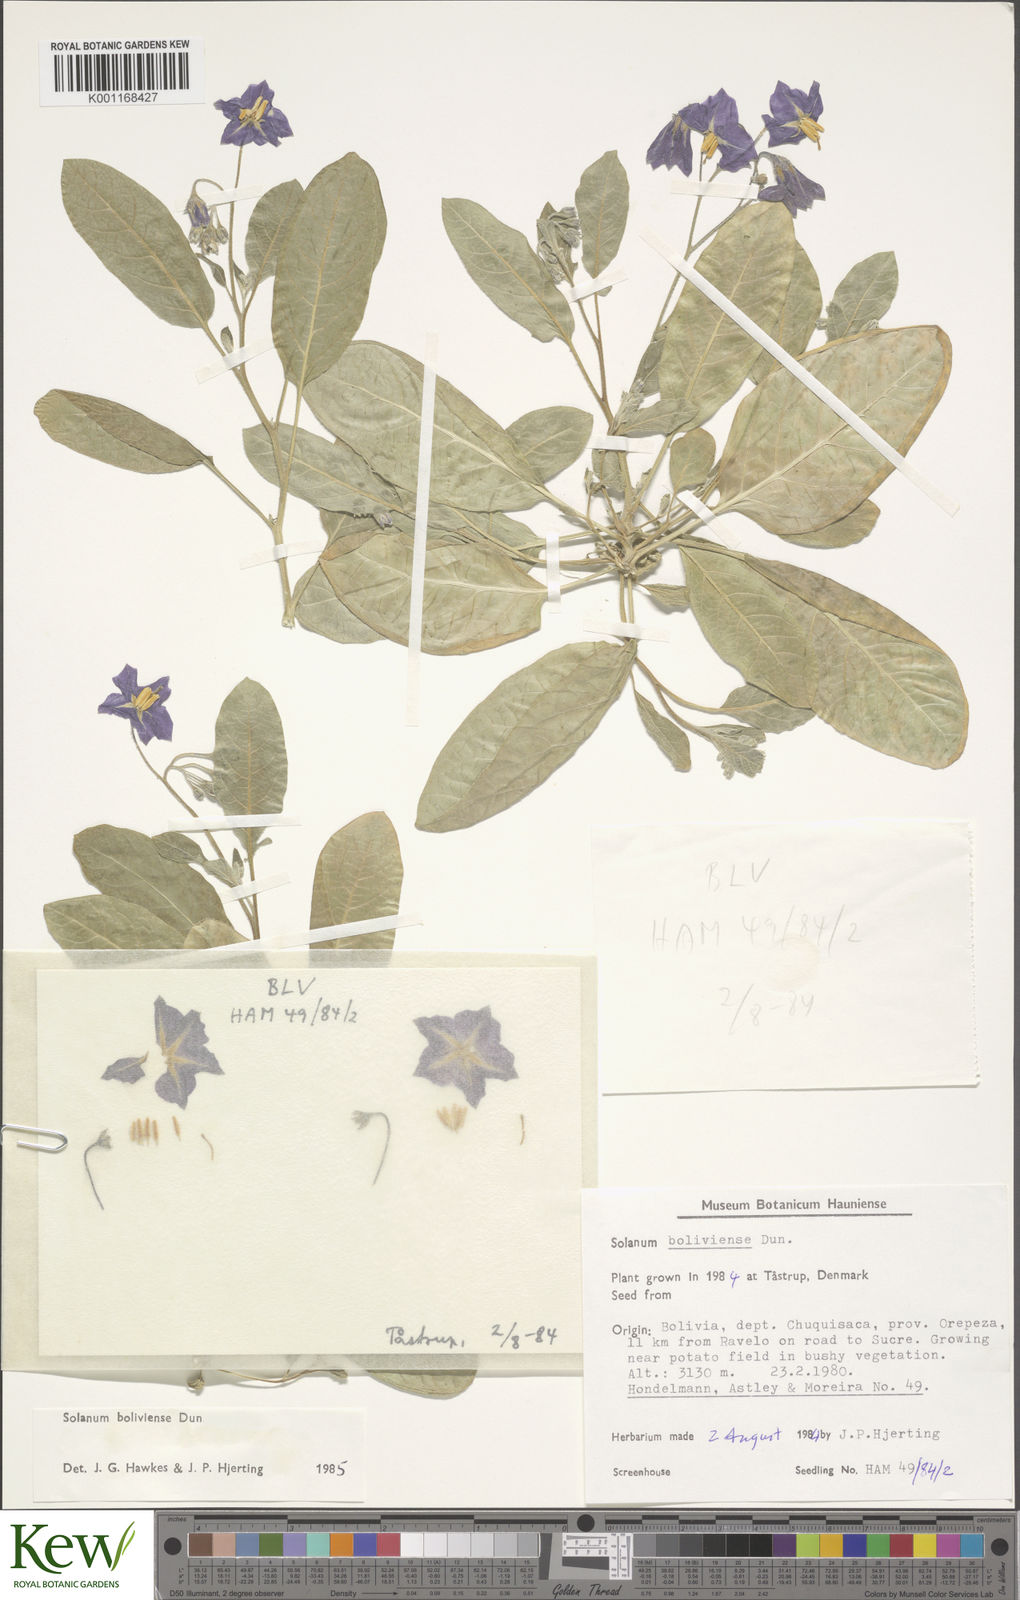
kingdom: Plantae
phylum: Tracheophyta
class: Magnoliopsida
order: Solanales
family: Solanaceae
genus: Solanum
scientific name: Solanum boliviense
